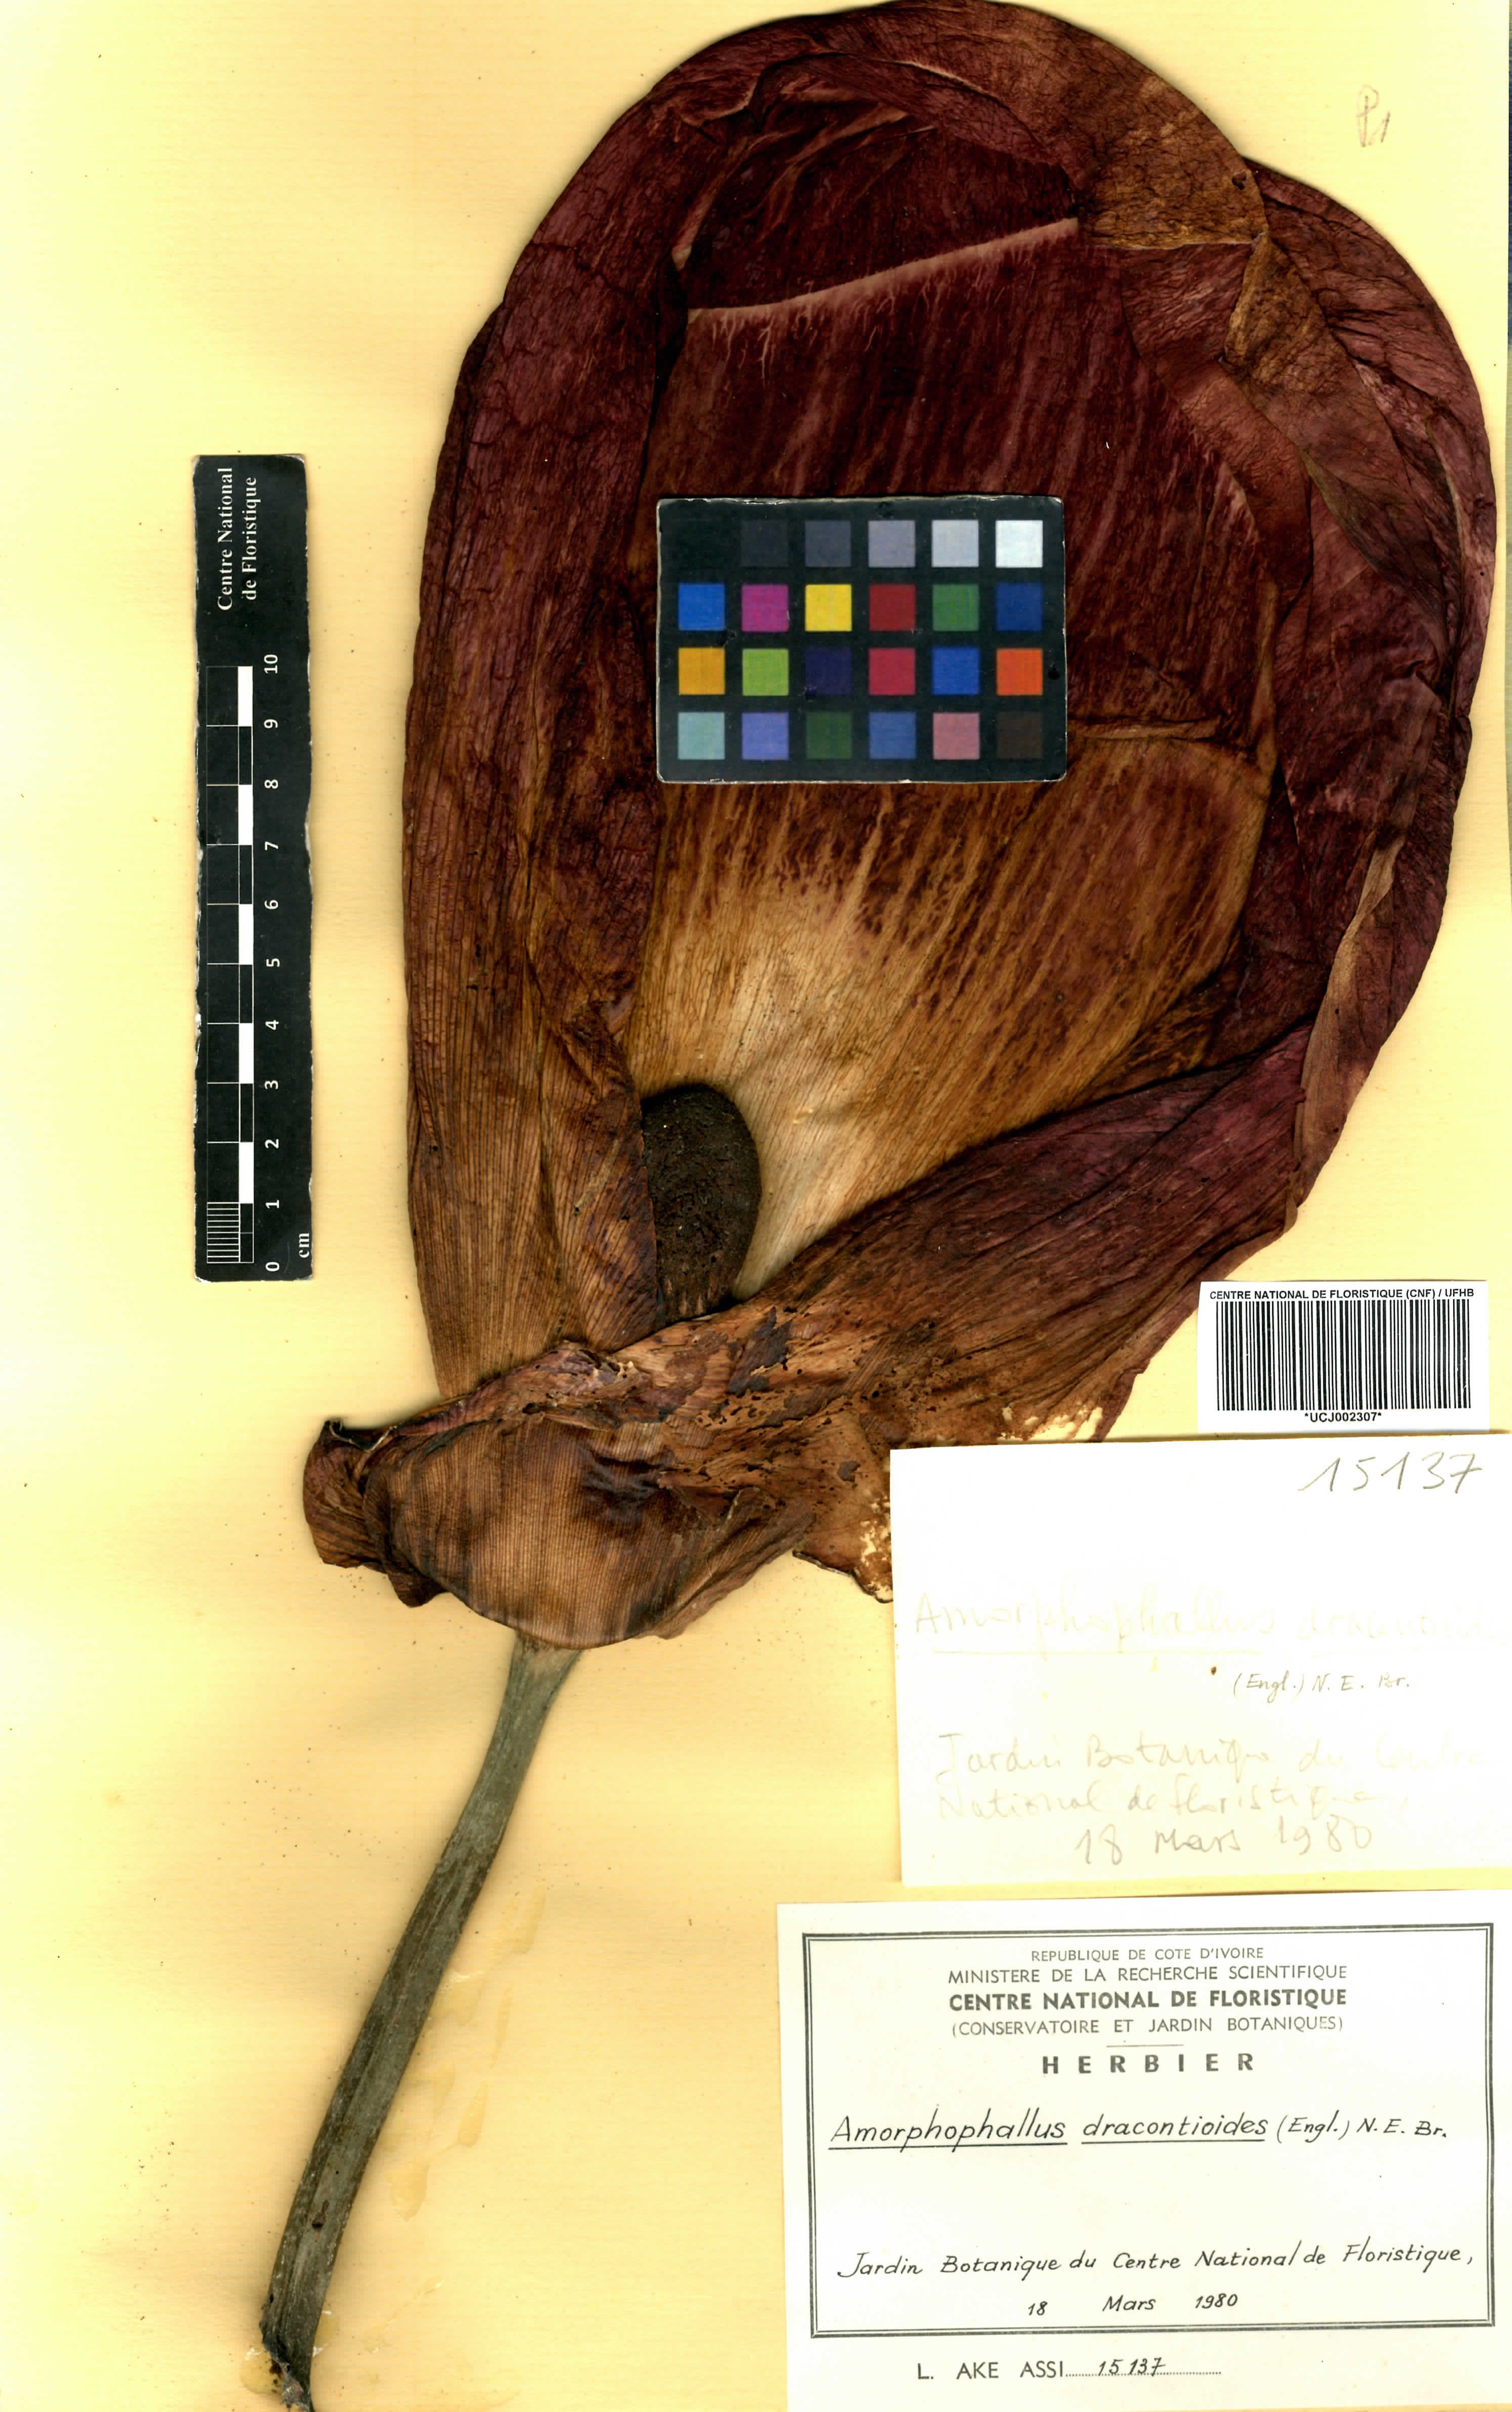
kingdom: Plantae
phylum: Tracheophyta
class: Liliopsida
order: Alismatales
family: Araceae
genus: Amorphophallus
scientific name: Amorphophallus dracontioides
